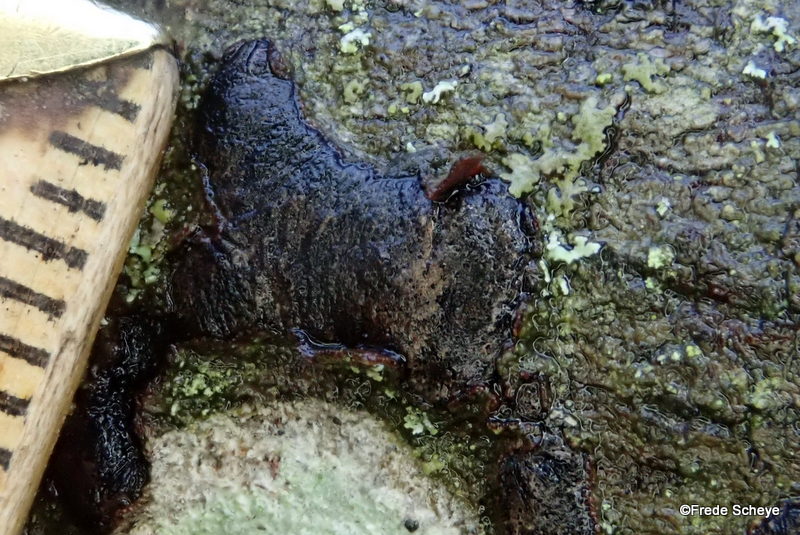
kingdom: Fungi
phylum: Ascomycota
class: Sordariomycetes
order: Xylariales
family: Diatrypaceae
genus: Diatrype
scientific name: Diatrype bullata
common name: pile-kulskorpe
